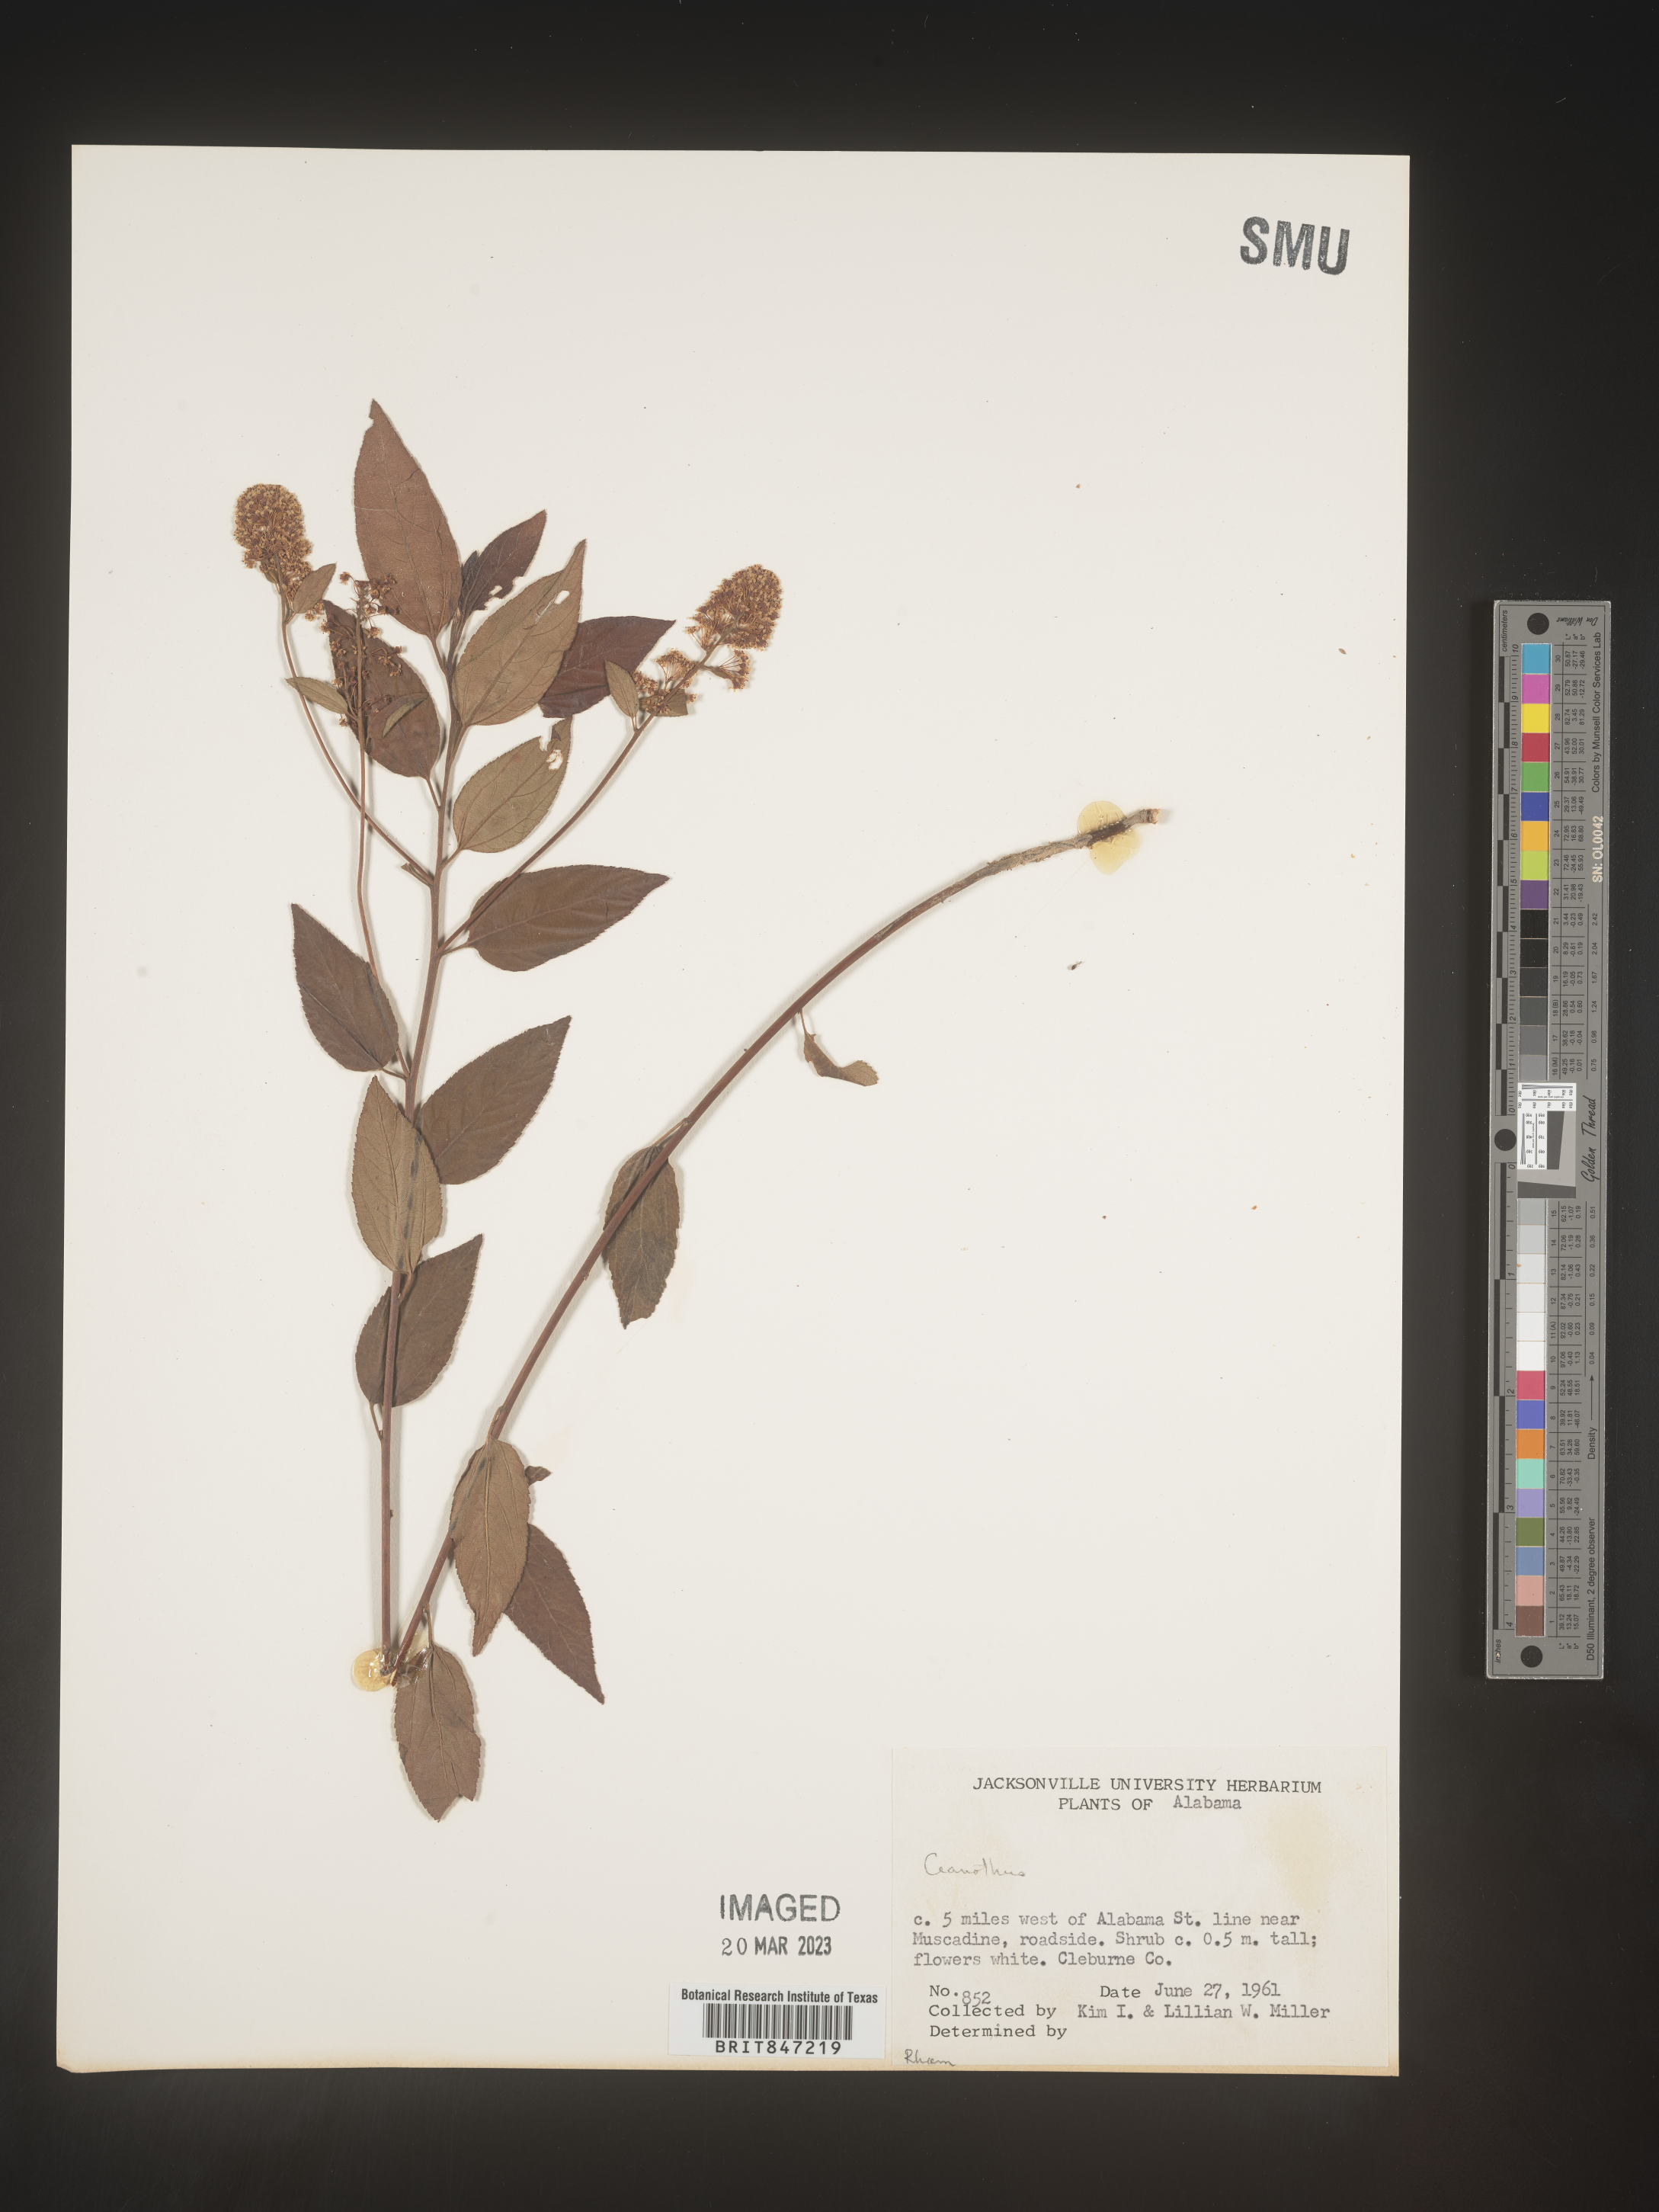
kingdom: Plantae
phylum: Tracheophyta
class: Magnoliopsida
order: Rosales
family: Rhamnaceae
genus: Ceanothus
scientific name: Ceanothus
